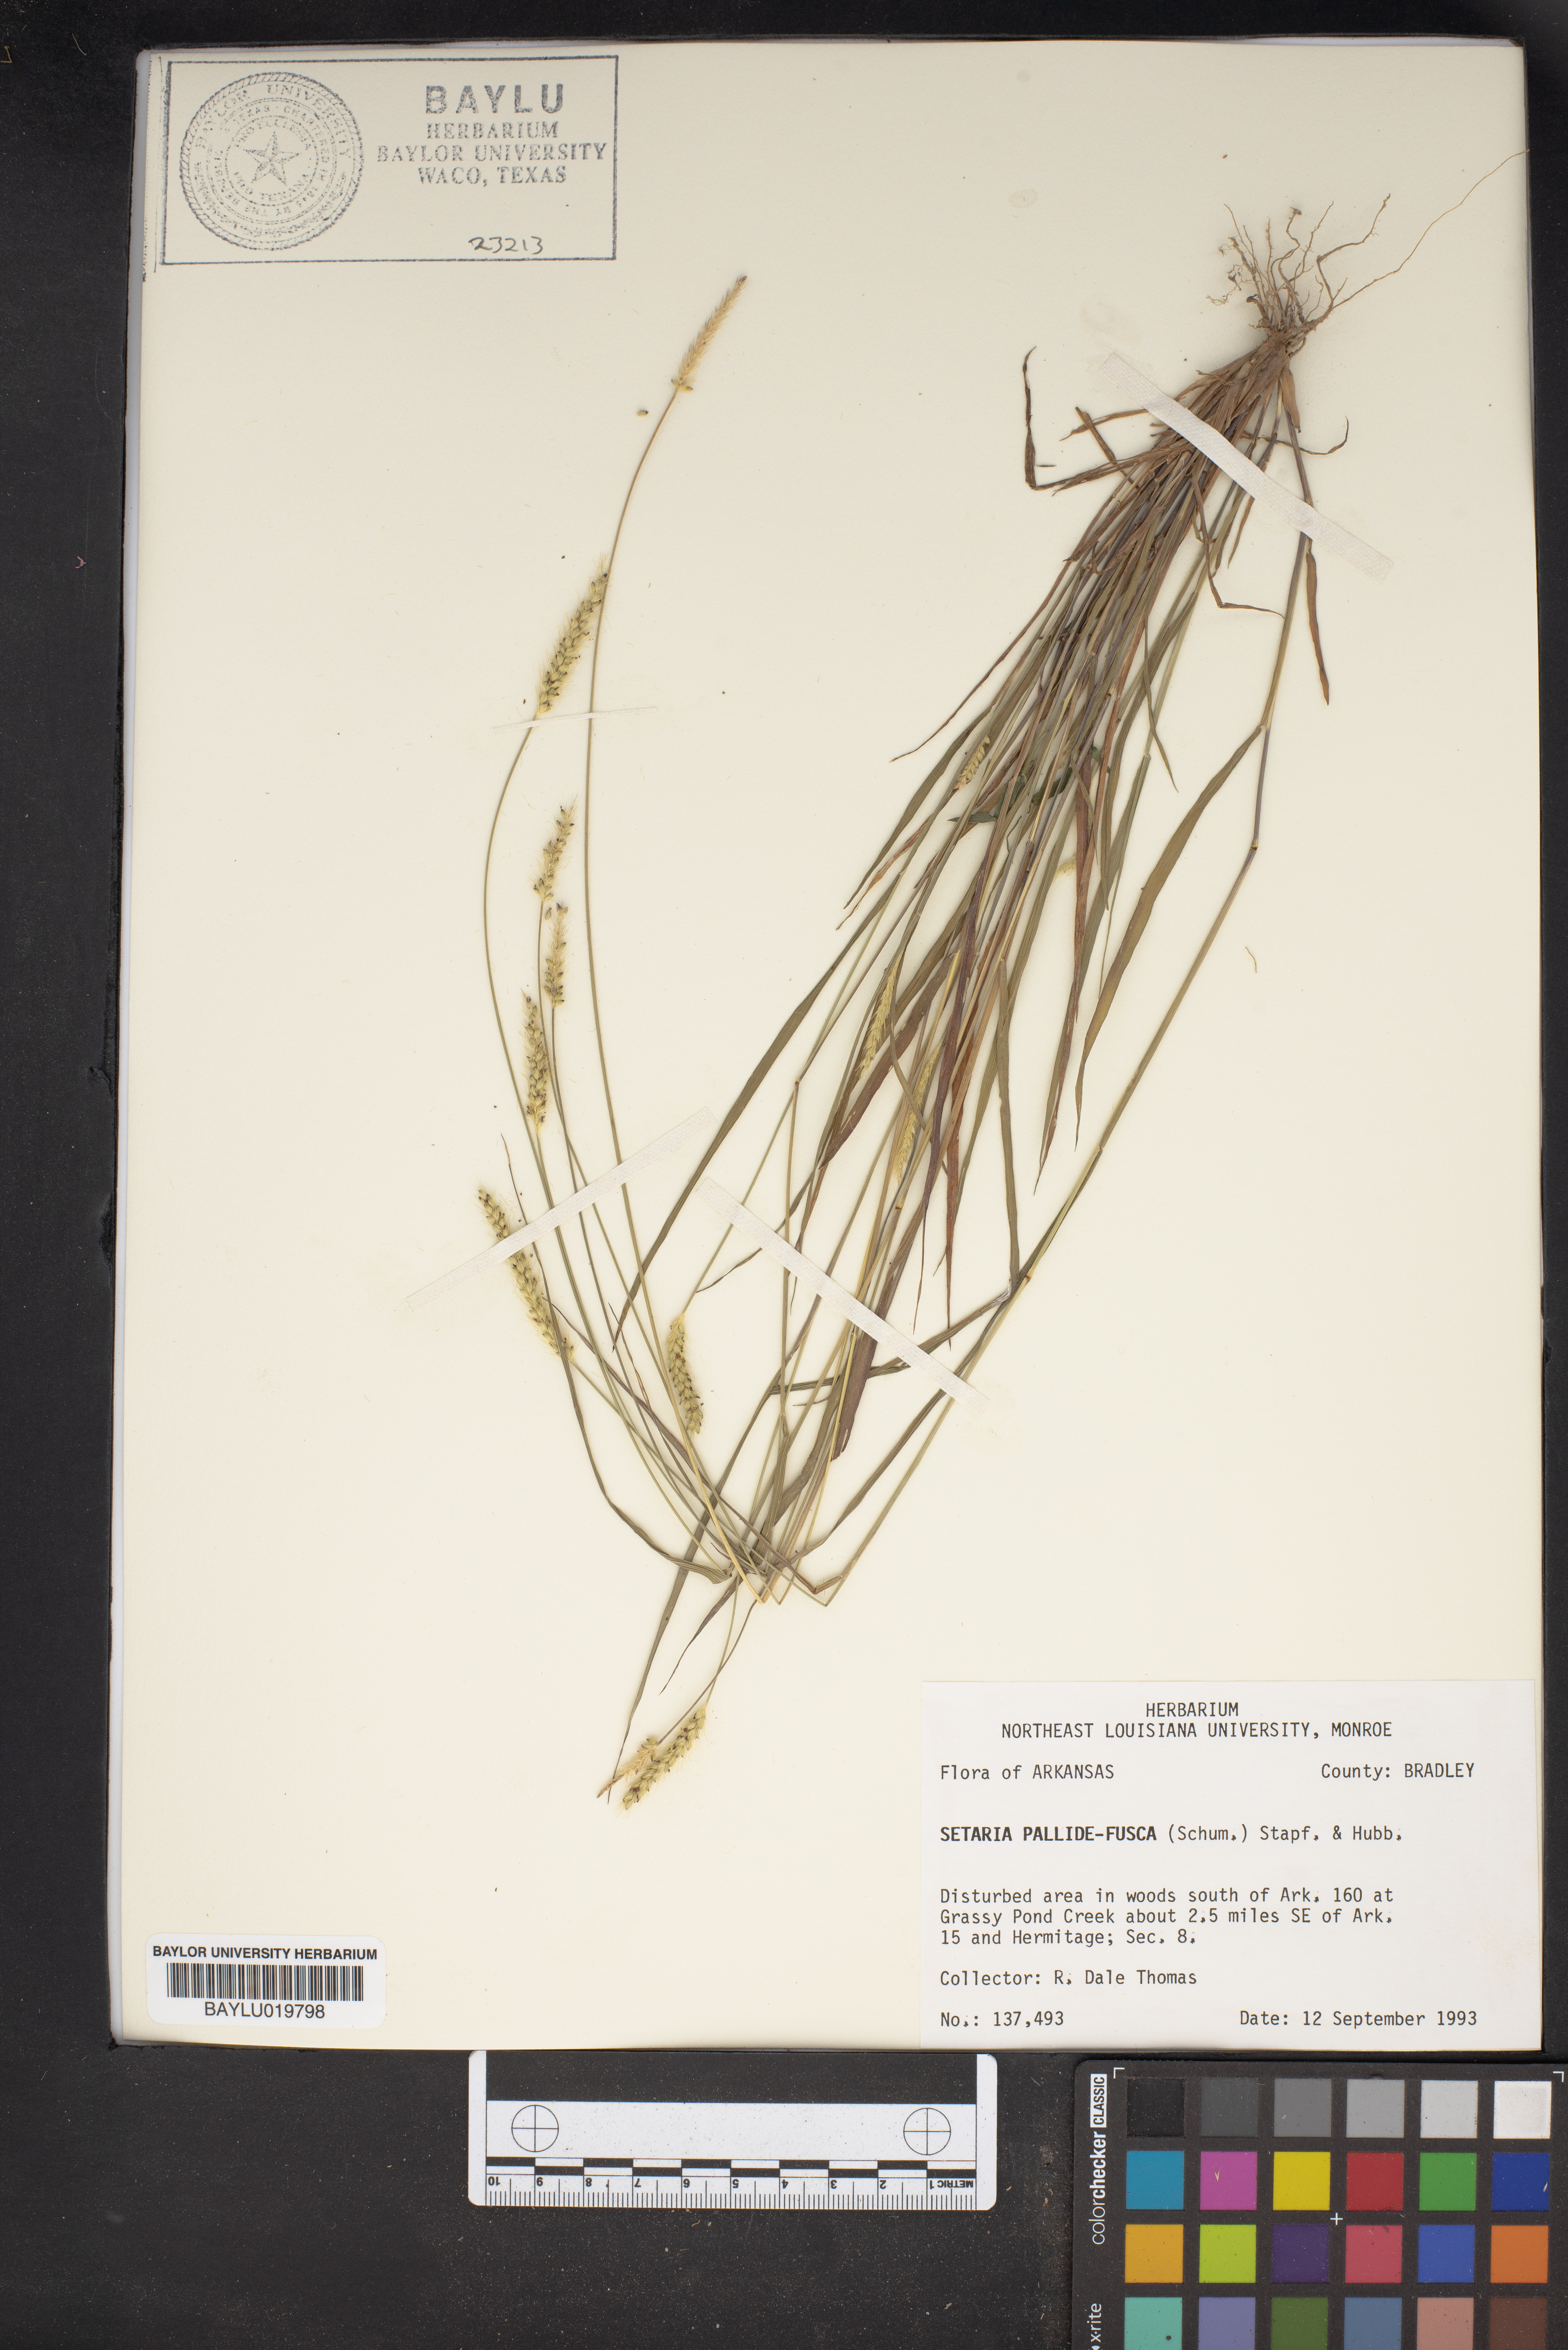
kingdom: Plantae
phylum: Tracheophyta
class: Liliopsida
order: Poales
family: Poaceae
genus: Setaria
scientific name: Setaria pumila
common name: Yellow bristle-grass
